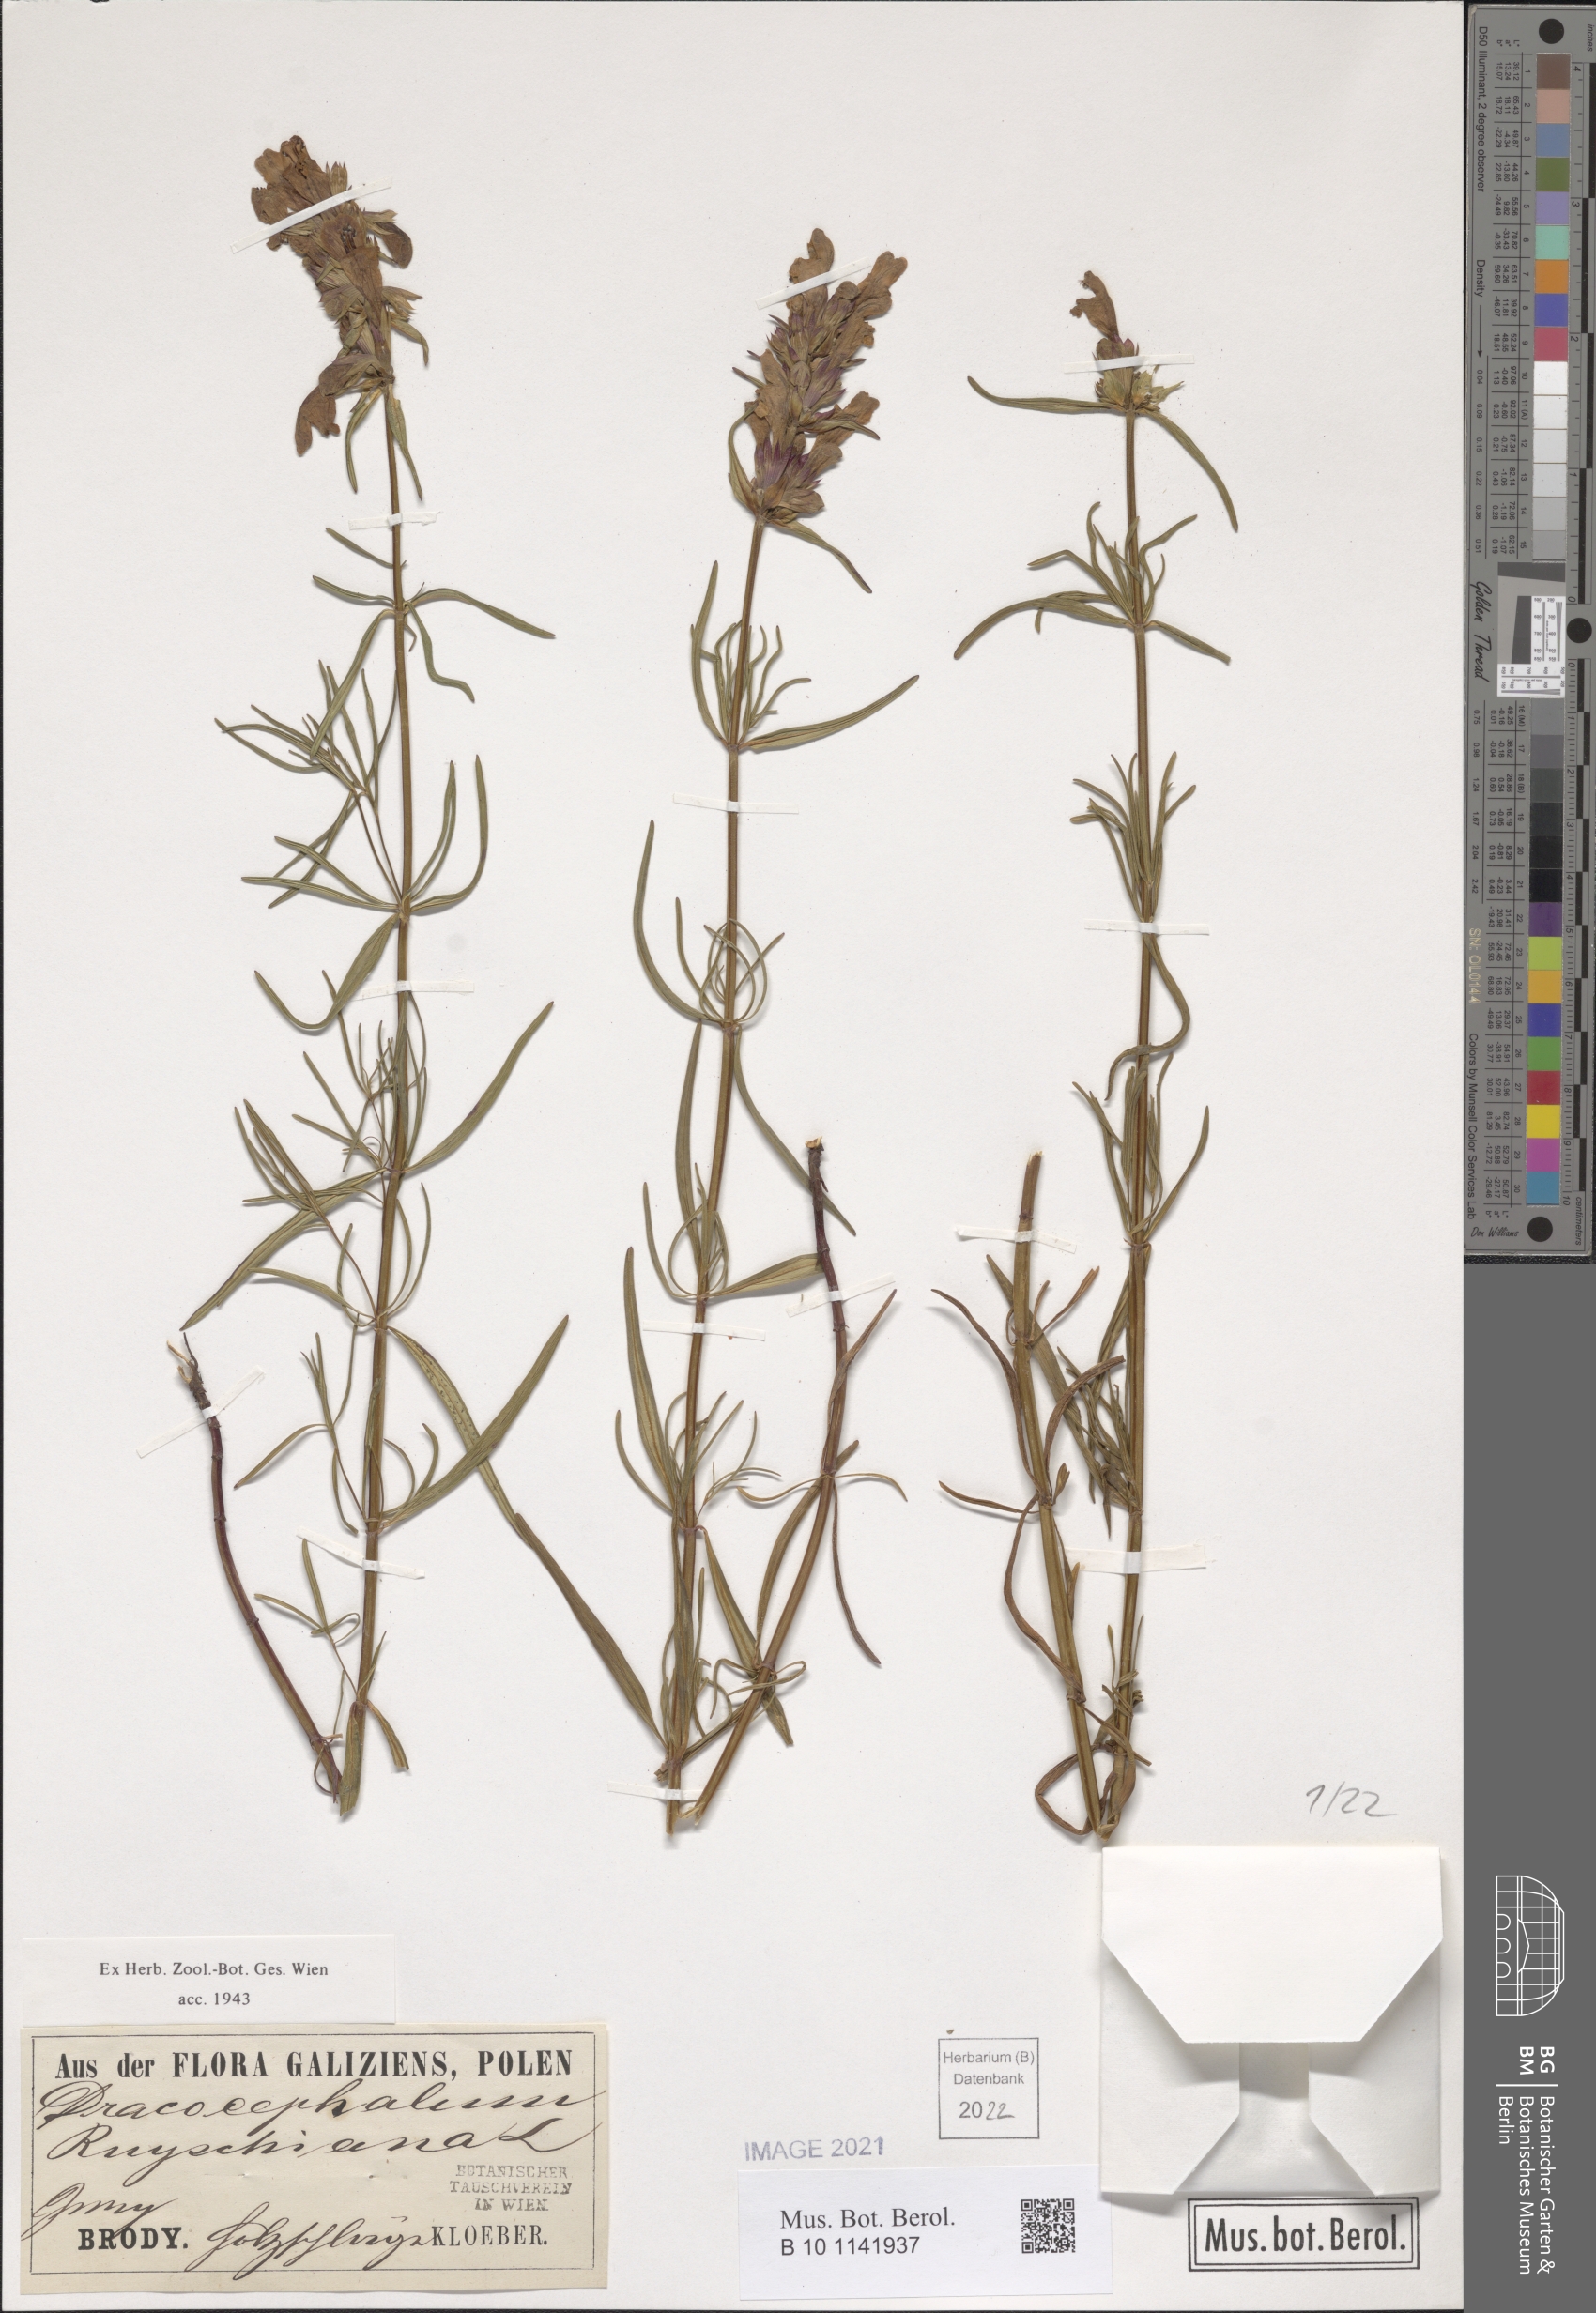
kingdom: Plantae
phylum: Tracheophyta
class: Magnoliopsida
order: Lamiales
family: Lamiaceae
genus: Dracocephalum
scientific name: Dracocephalum ruyschiana
